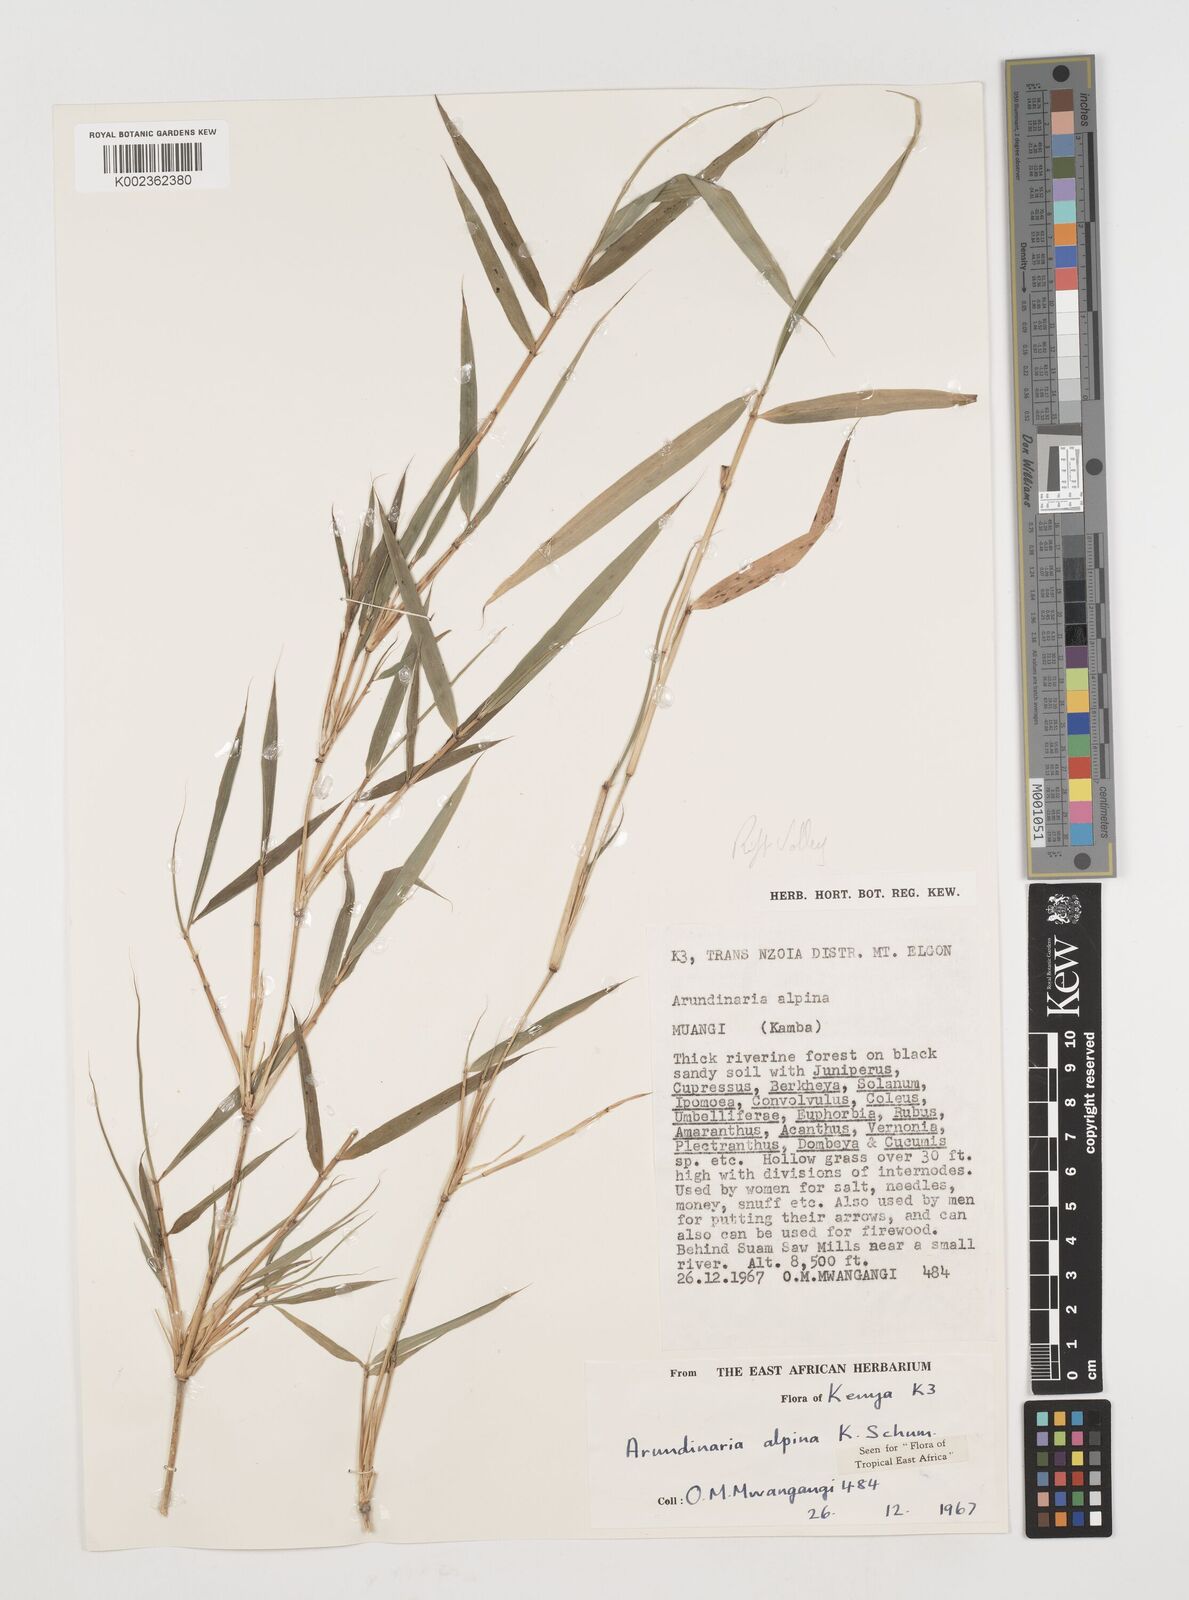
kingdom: Plantae
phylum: Tracheophyta
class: Liliopsida
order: Poales
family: Poaceae
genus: Oldeania
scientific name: Oldeania alpina
